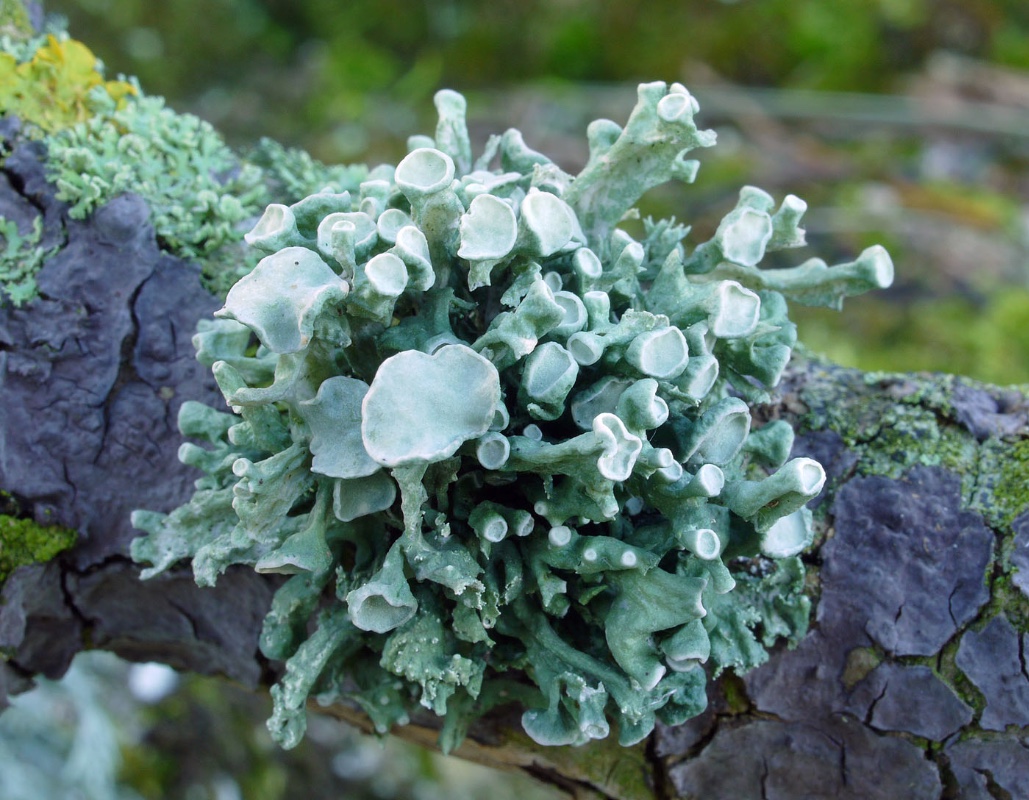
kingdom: Fungi
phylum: Ascomycota
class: Lecanoromycetes
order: Lecanorales
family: Ramalinaceae
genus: Ramalina
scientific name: Ramalina fastigiata
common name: tue-grenlav
